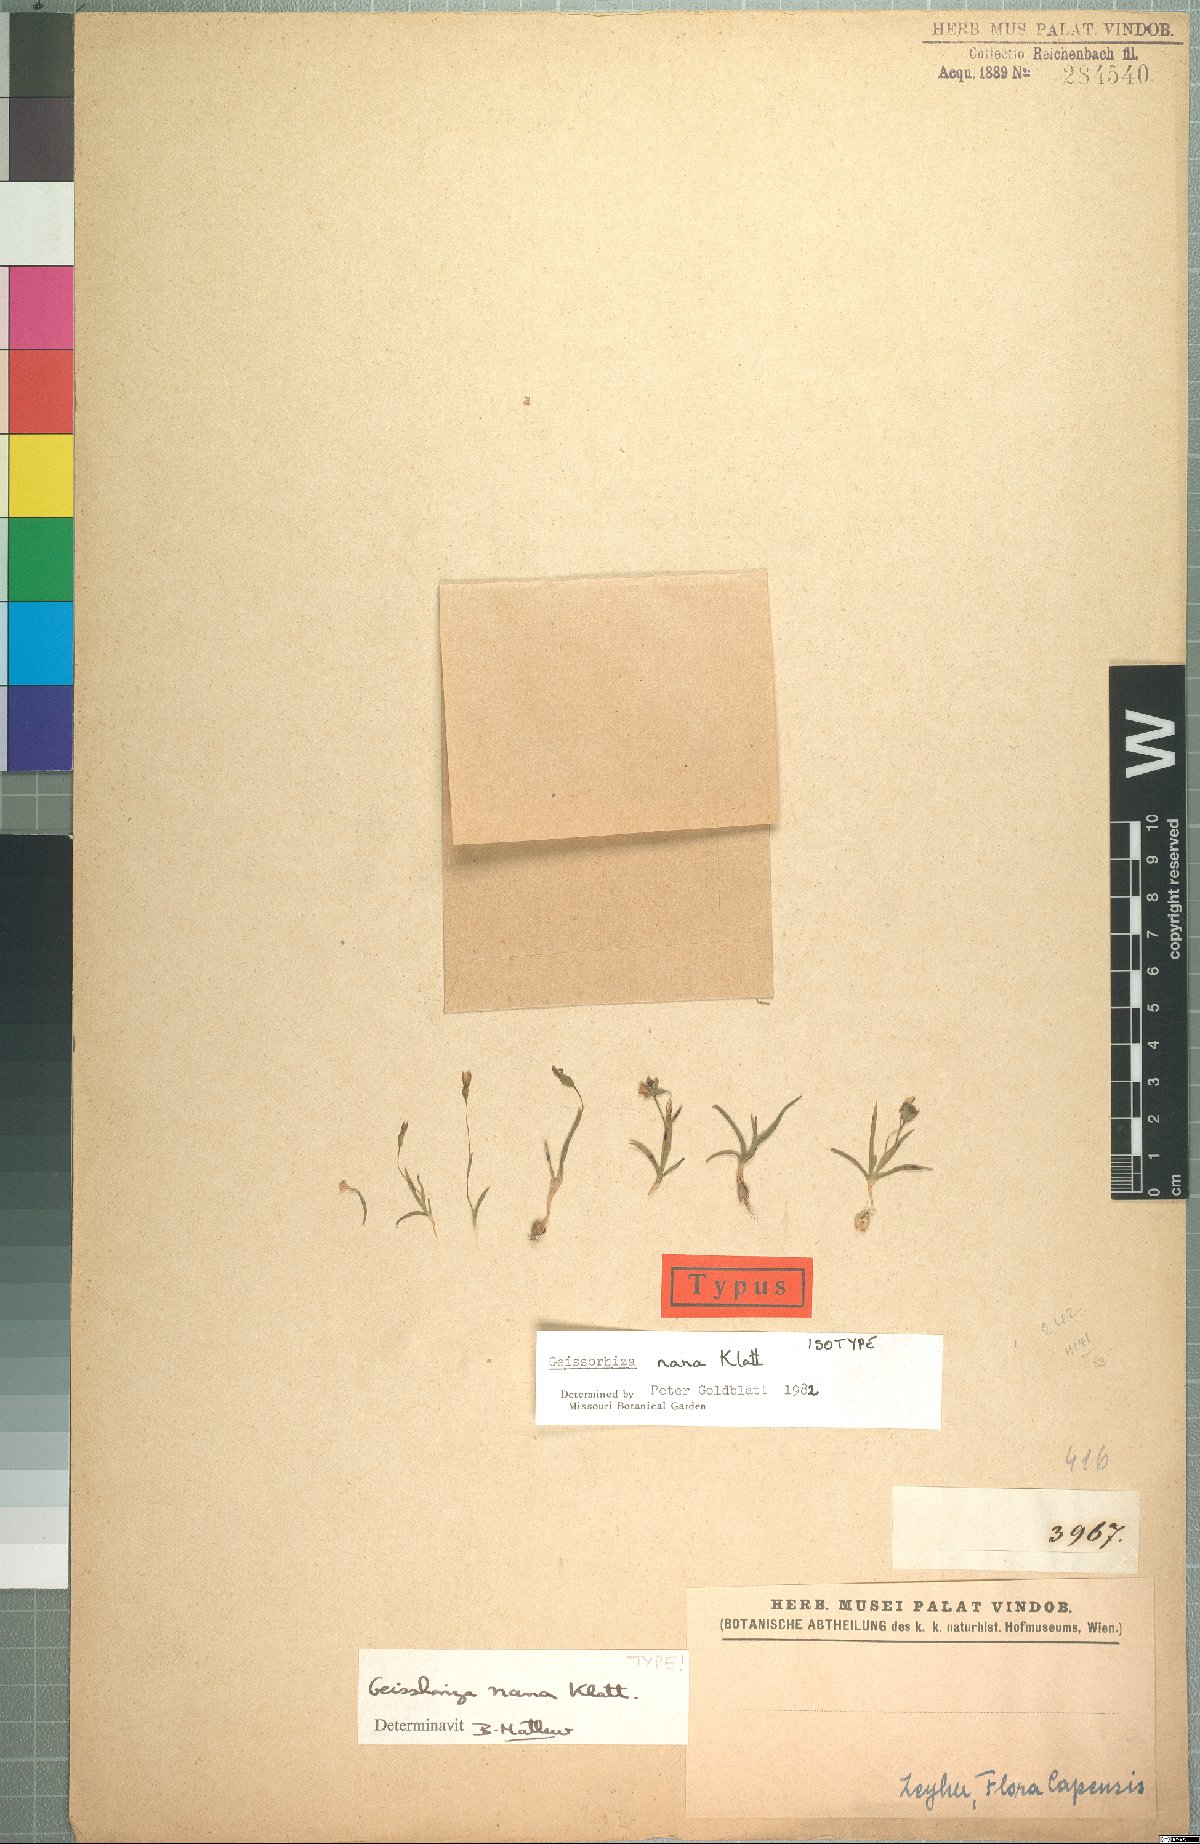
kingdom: Plantae
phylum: Tracheophyta
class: Liliopsida
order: Asparagales
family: Iridaceae
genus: Geissorhiza
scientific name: Geissorhiza nana
